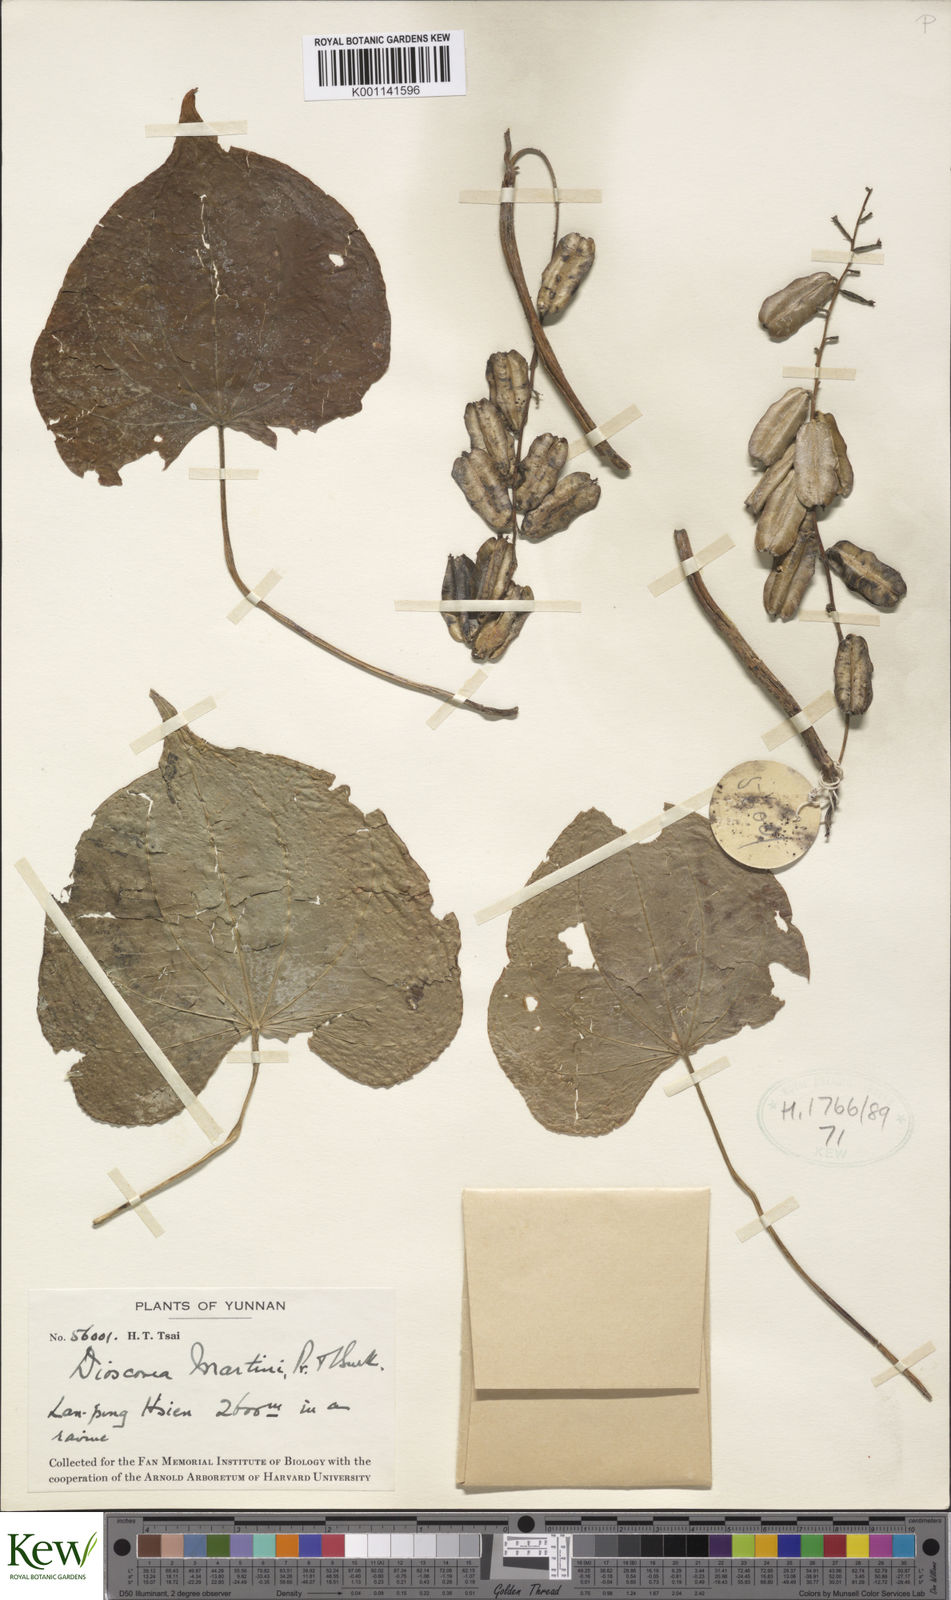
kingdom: Plantae
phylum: Tracheophyta
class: Liliopsida
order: Dioscoreales
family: Dioscoreaceae
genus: Dioscorea
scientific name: Dioscorea martini
